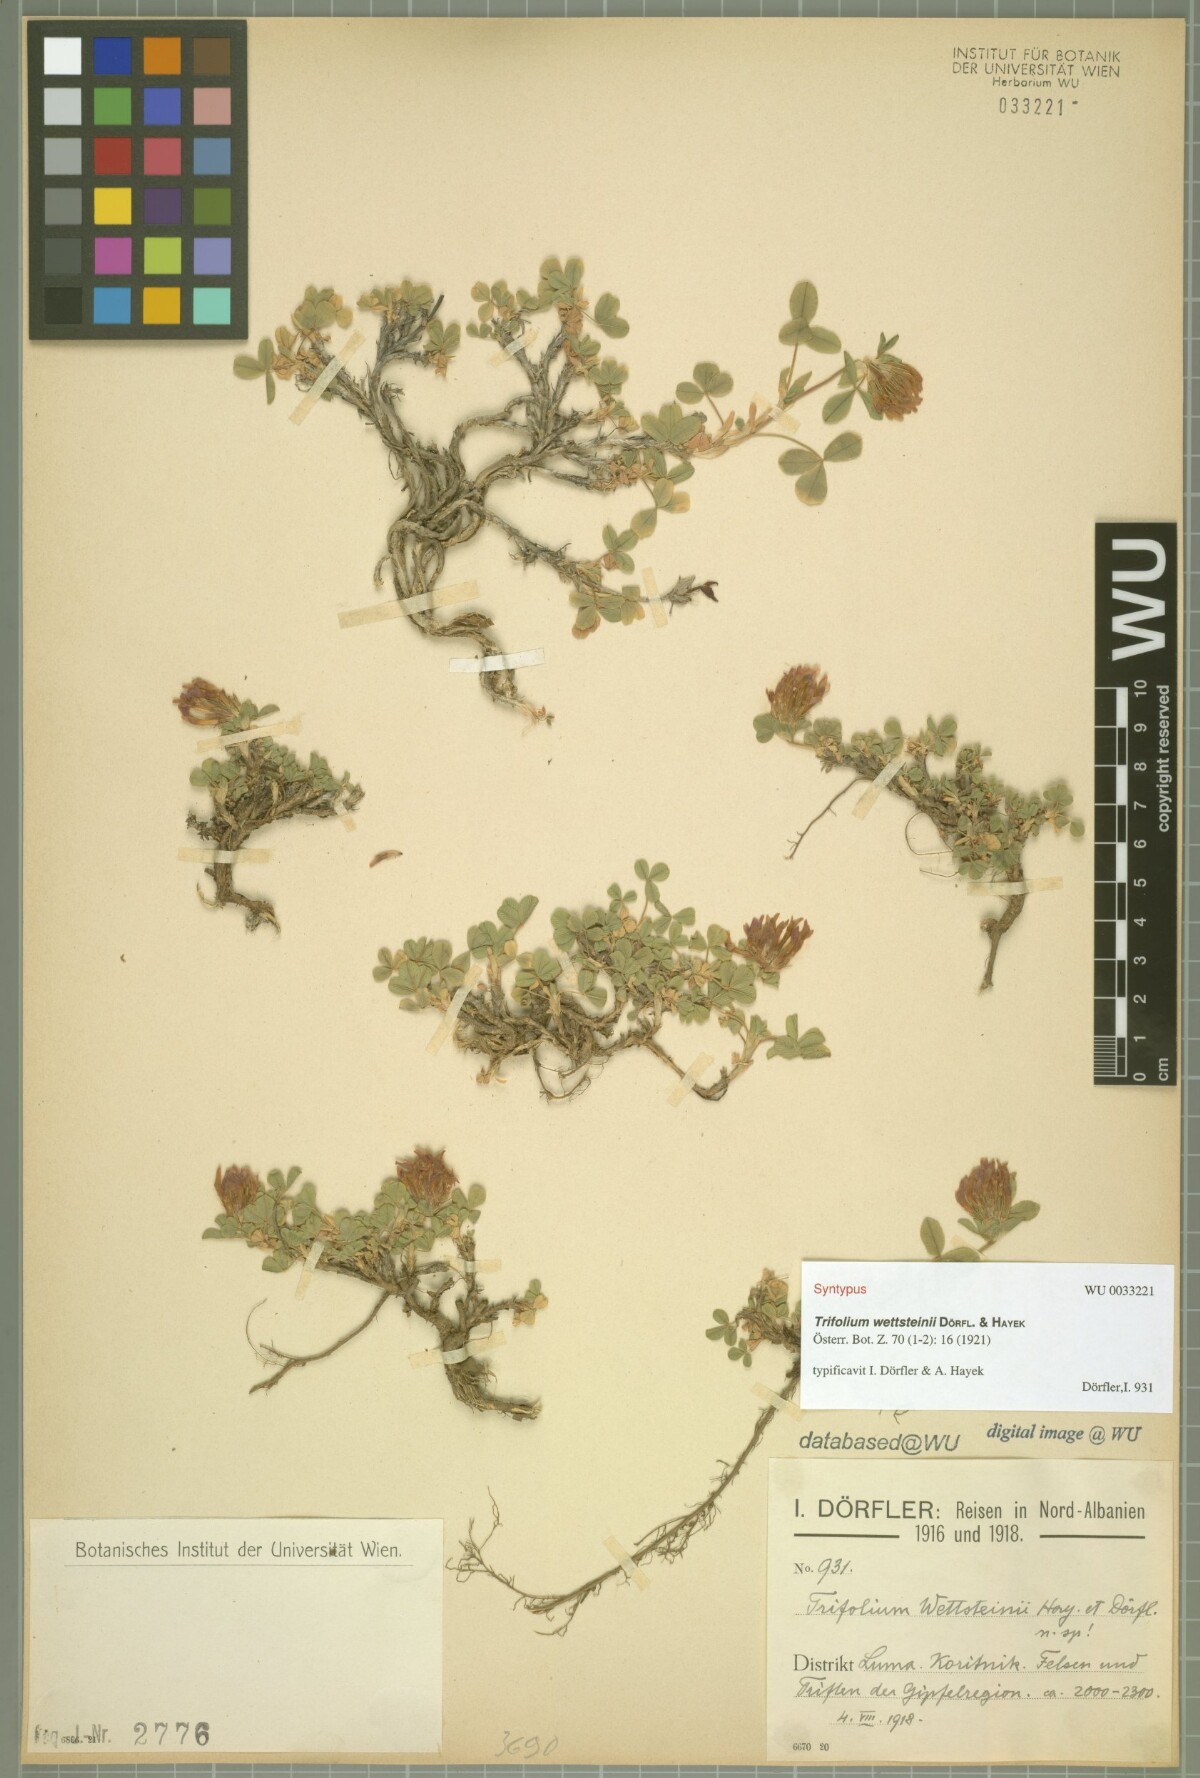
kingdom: Plantae
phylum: Tracheophyta
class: Magnoliopsida
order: Fabales
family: Fabaceae
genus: Trifolium
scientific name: Trifolium wettsteinii
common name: Wettstein's clover
